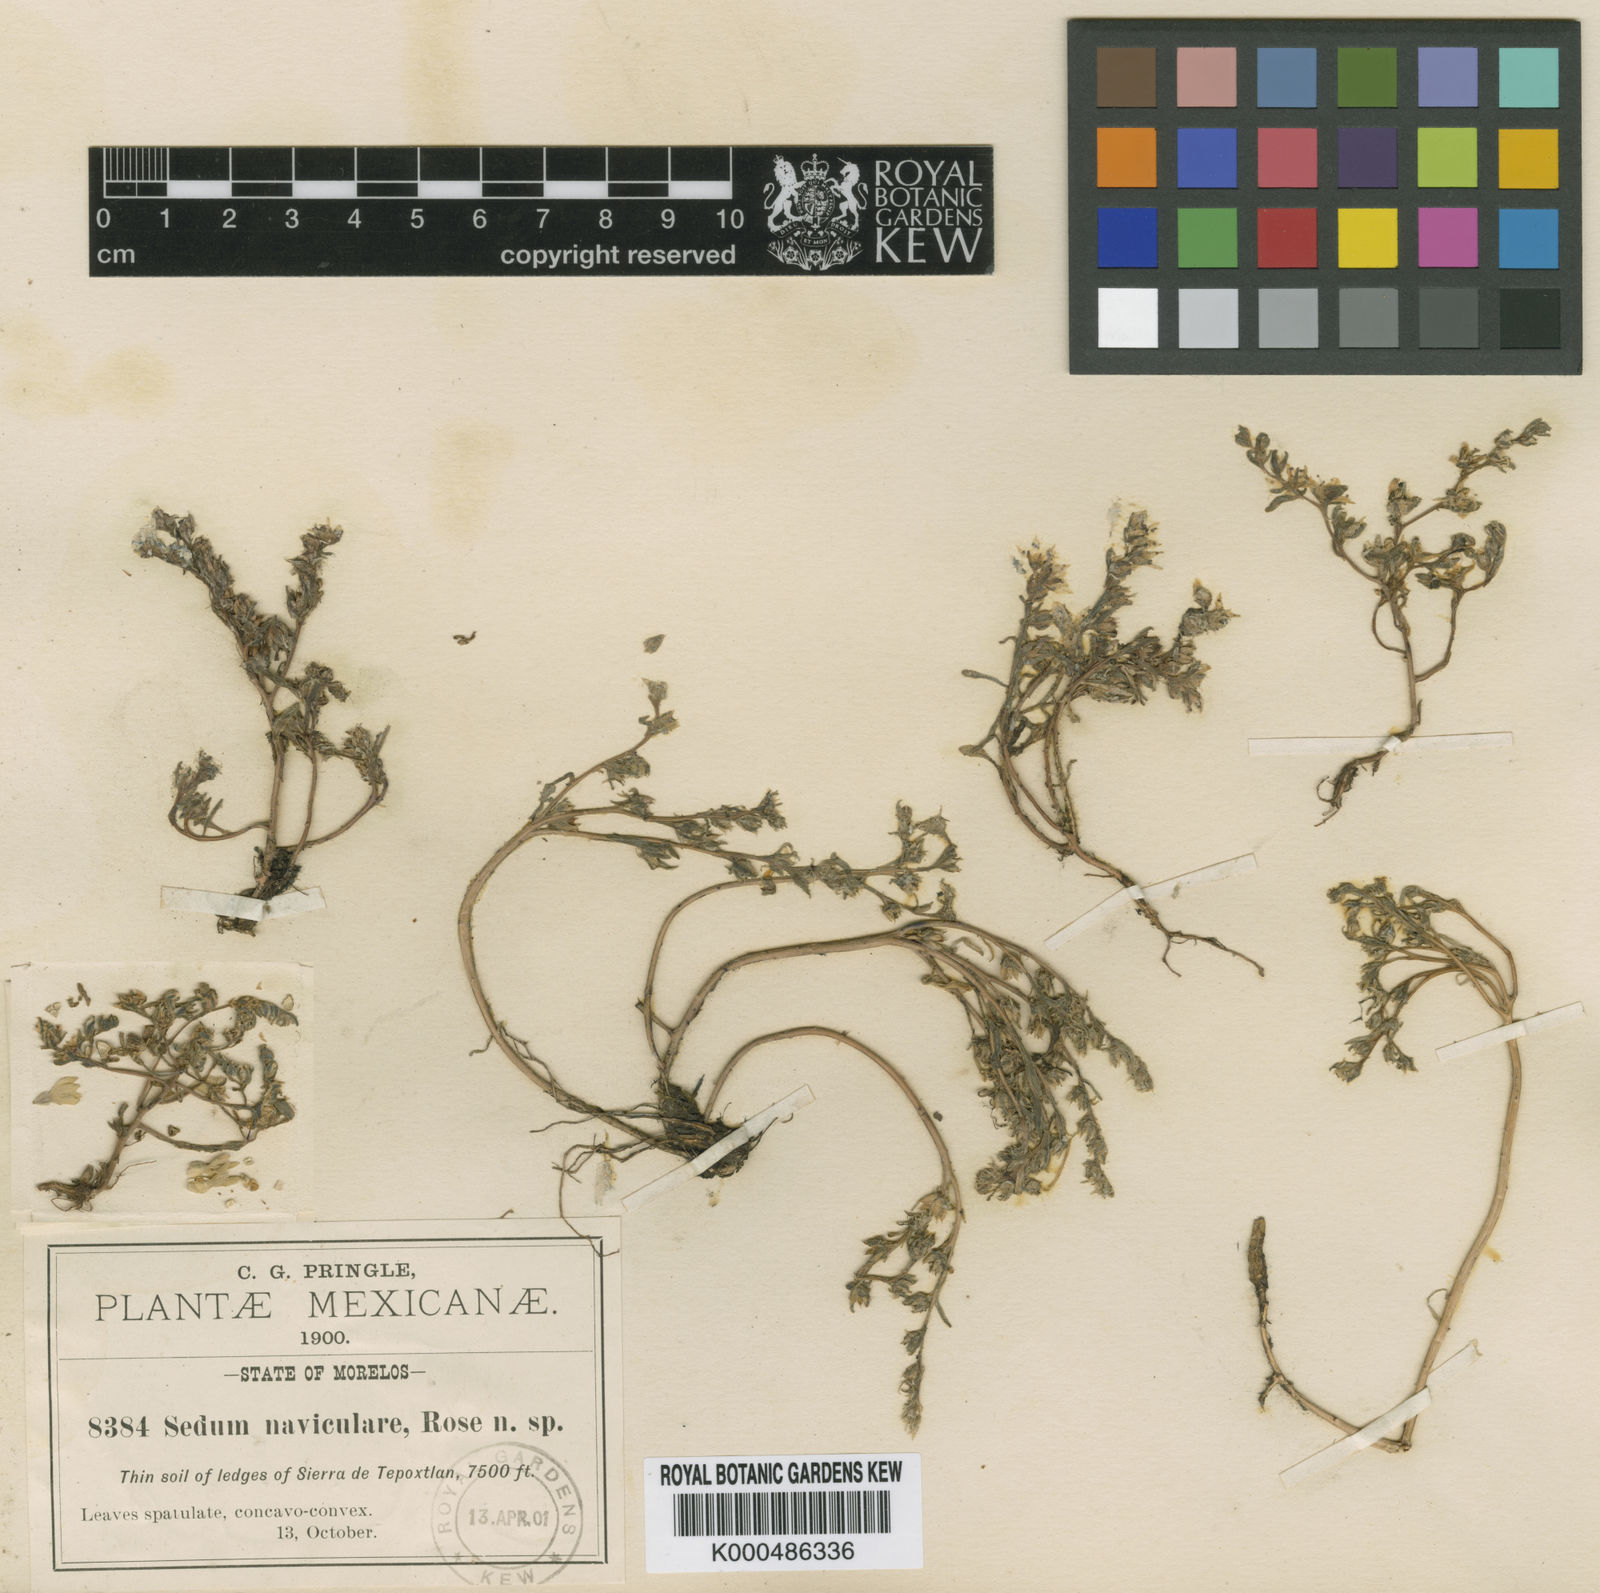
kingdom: Plantae
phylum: Tracheophyta
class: Magnoliopsida
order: Saxifragales
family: Crassulaceae
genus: Sedum
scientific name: Sedum jaliscanum
